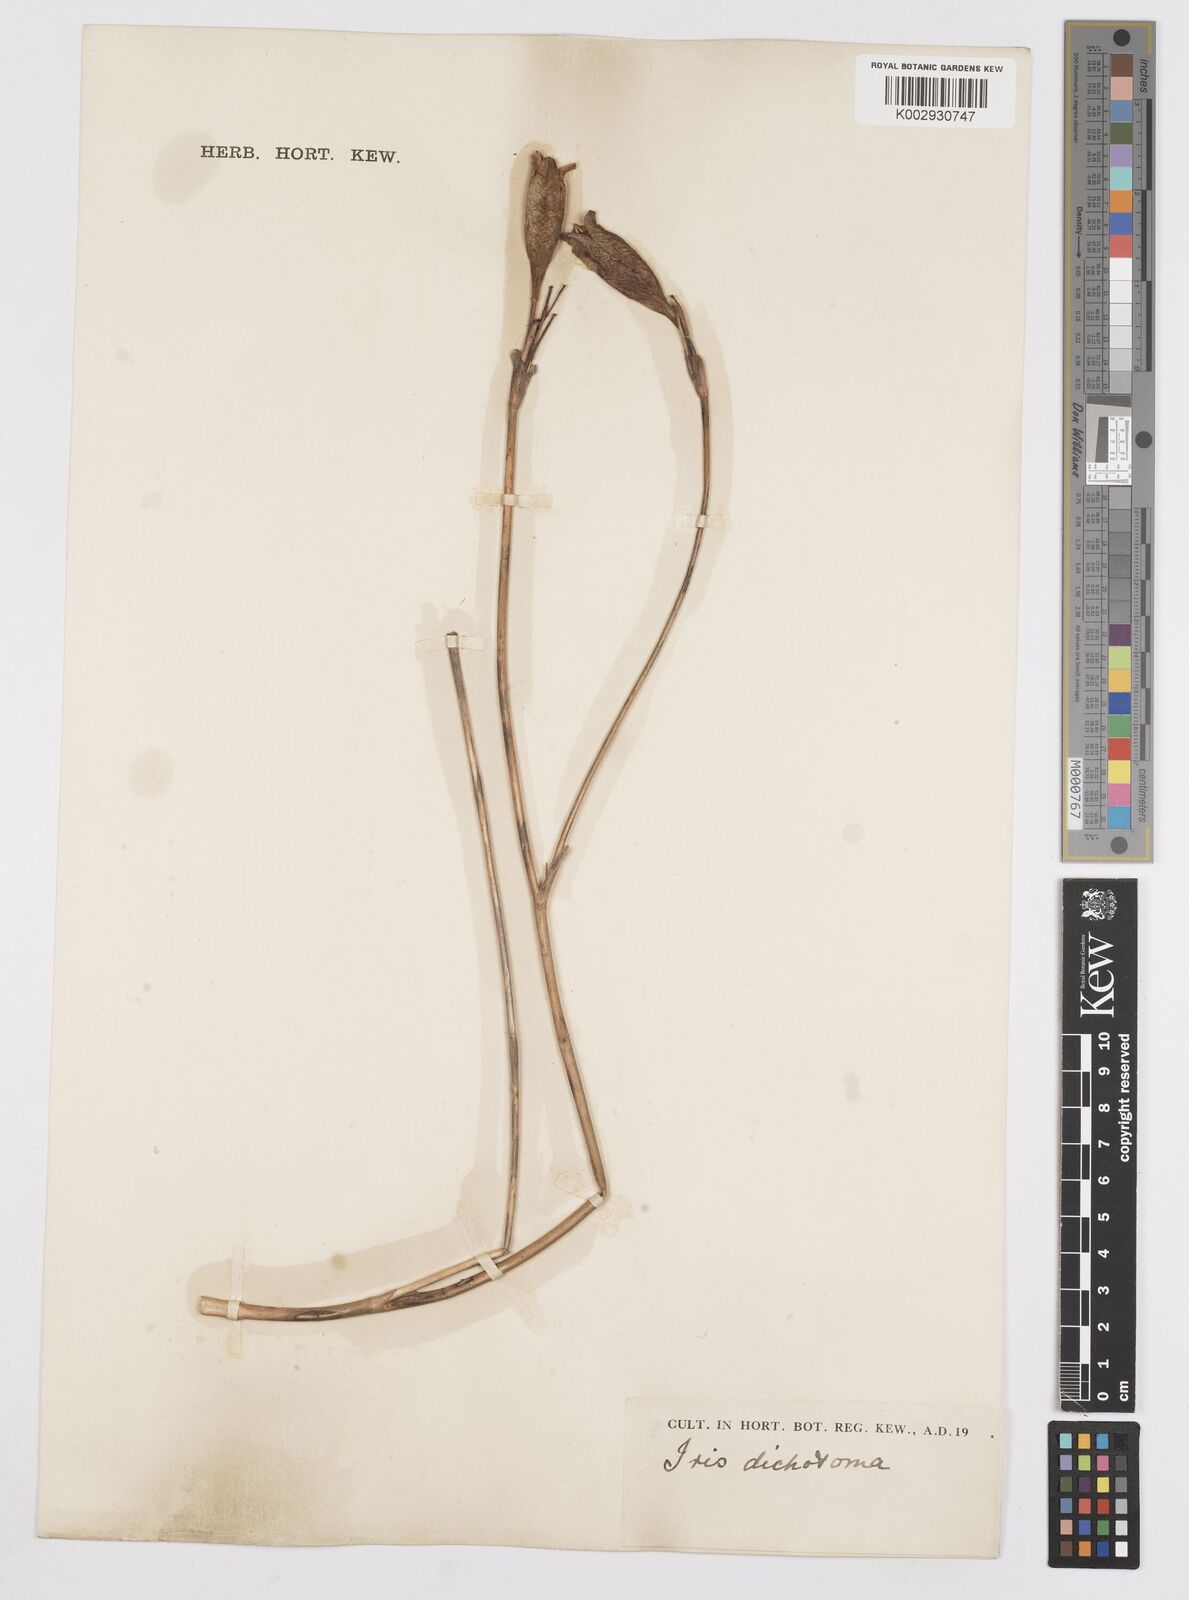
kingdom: Plantae
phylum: Tracheophyta
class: Liliopsida
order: Asparagales
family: Iridaceae
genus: Iris
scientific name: Iris dichotoma
